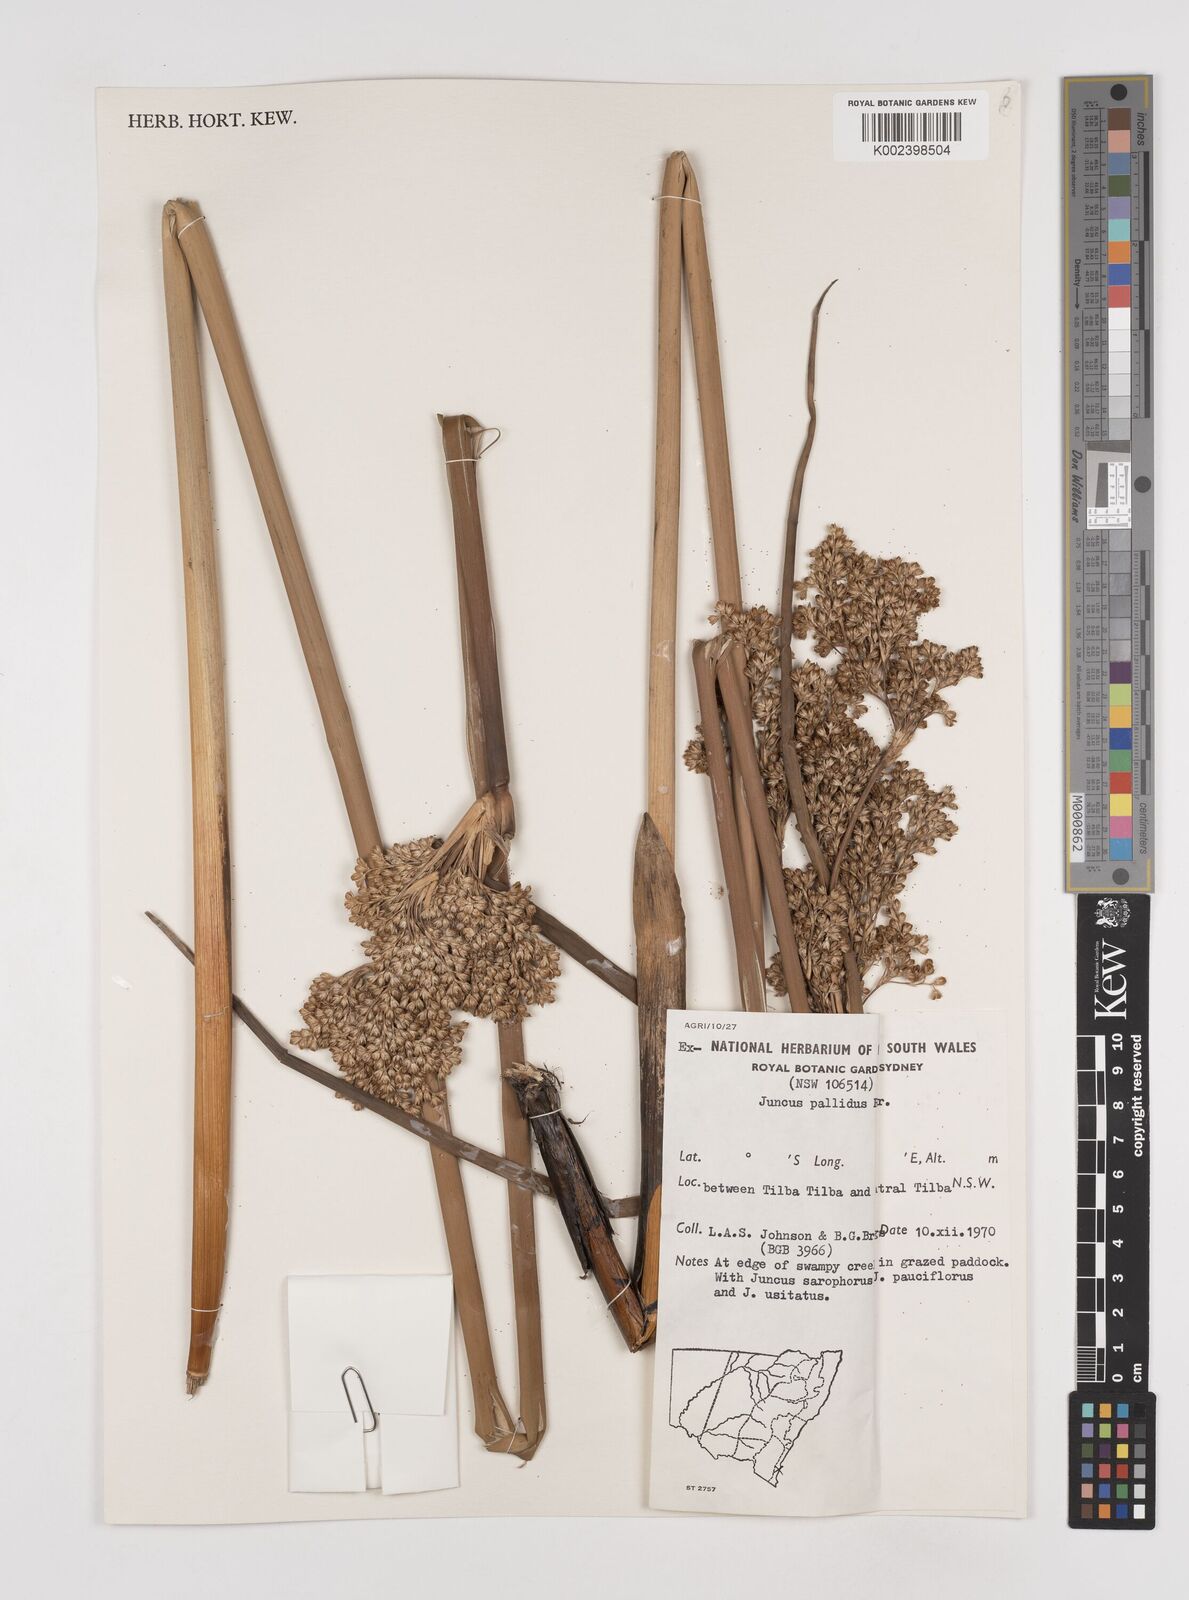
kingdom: Plantae
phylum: Tracheophyta
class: Liliopsida
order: Poales
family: Juncaceae
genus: Juncus
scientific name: Juncus pallidus
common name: Great soft-rush
